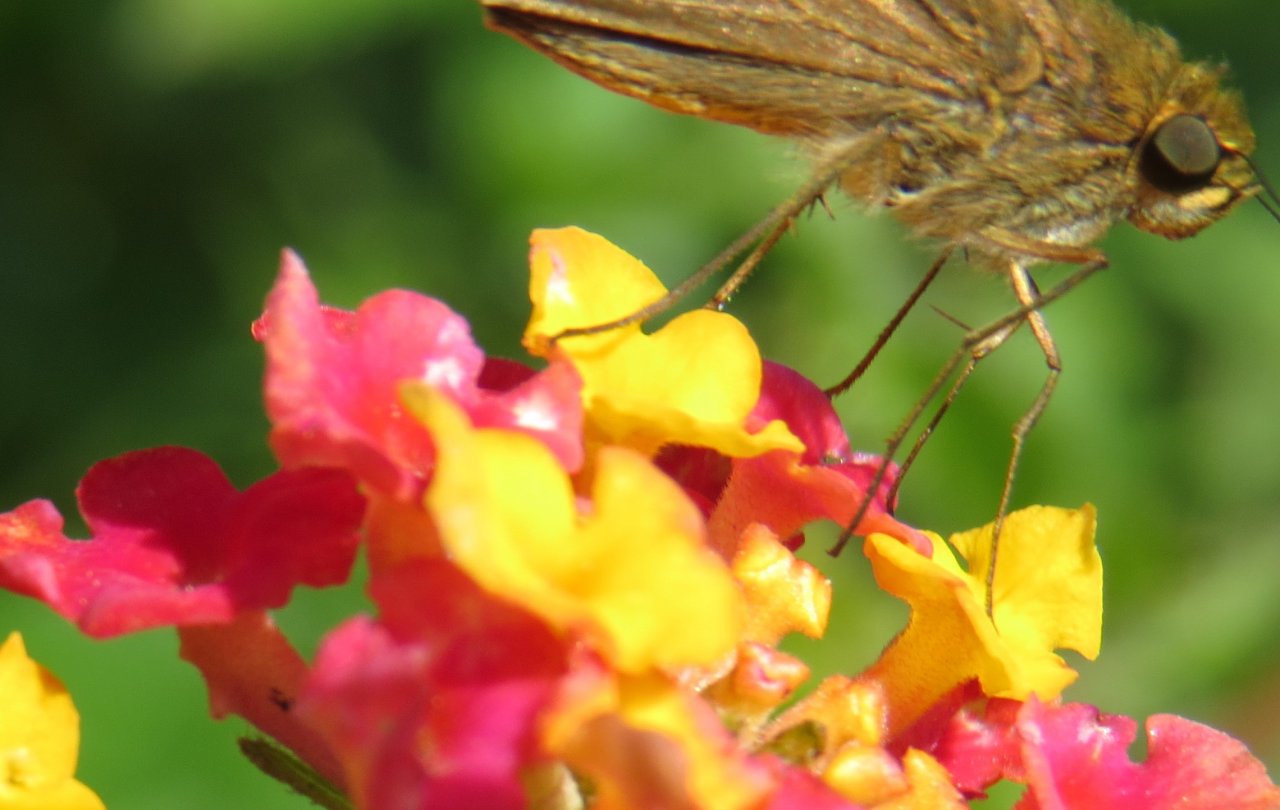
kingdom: Animalia
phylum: Arthropoda
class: Insecta
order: Lepidoptera
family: Hesperiidae
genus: Panoquina
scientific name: Panoquina ocola
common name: Ocola Skipper
